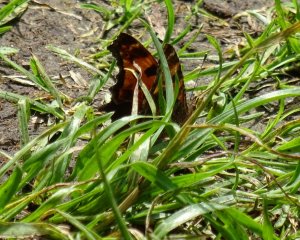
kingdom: Animalia
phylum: Arthropoda
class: Insecta
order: Lepidoptera
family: Nymphalidae
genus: Polygonia
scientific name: Polygonia
